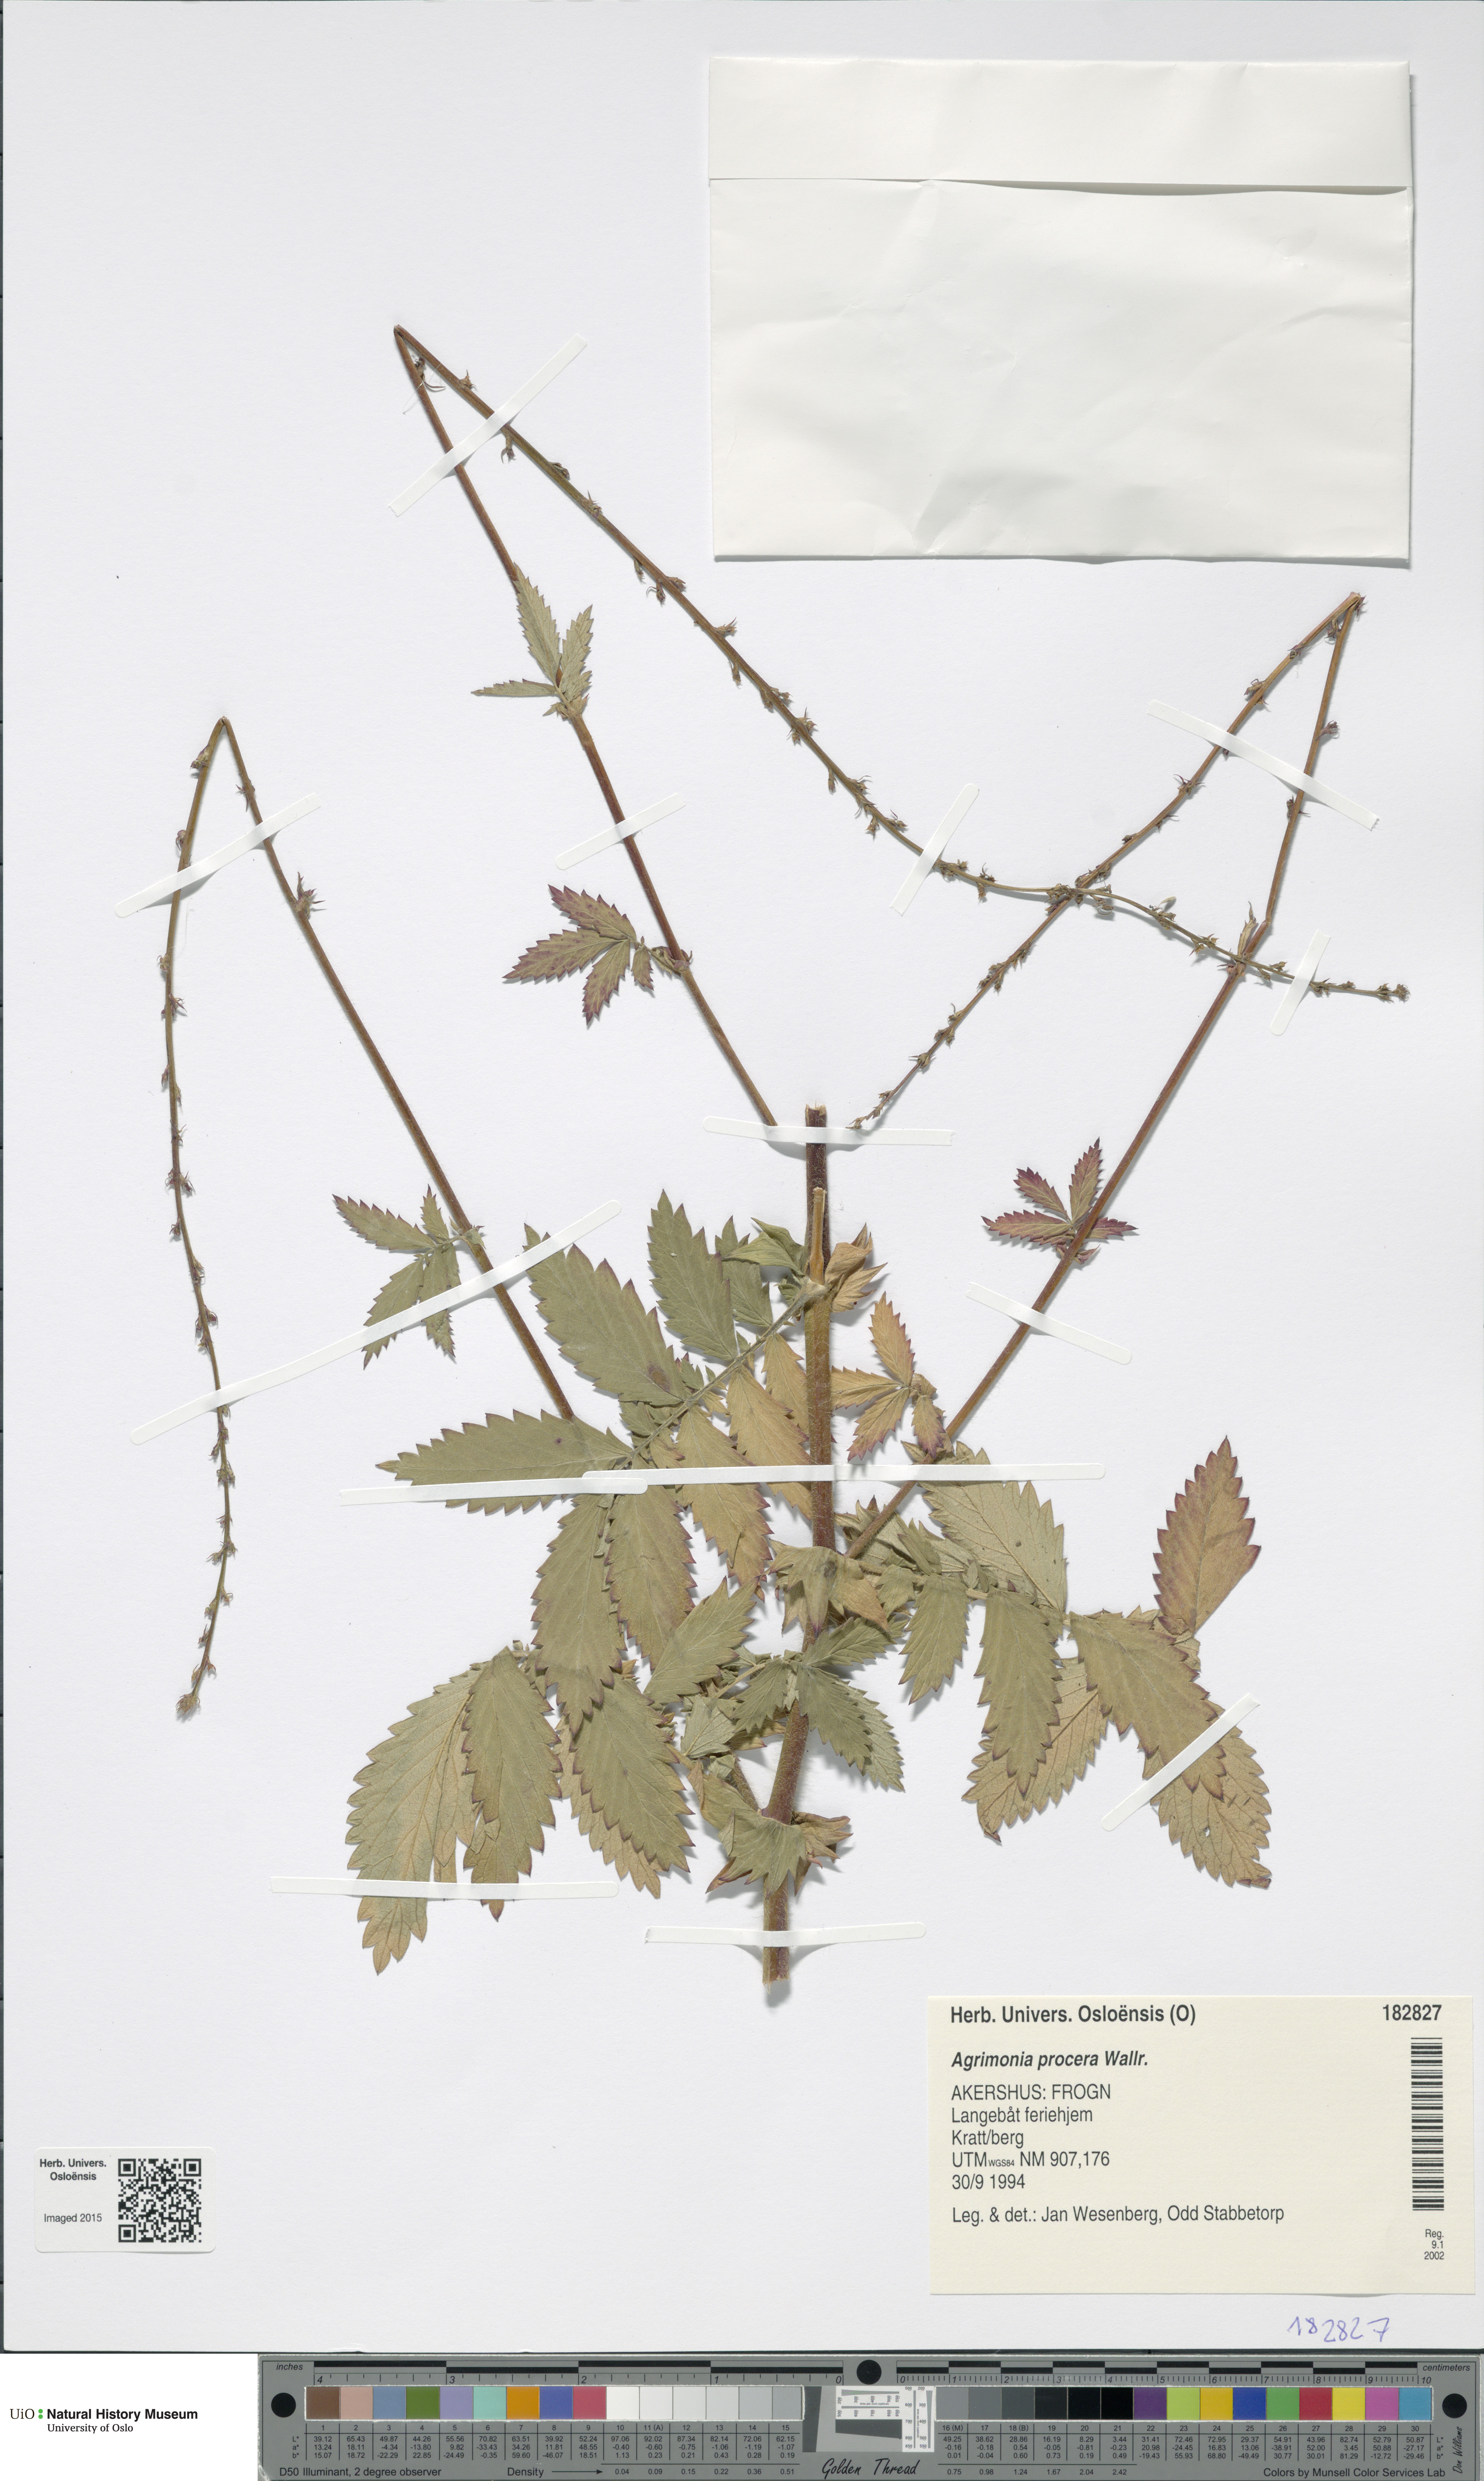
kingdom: Plantae
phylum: Tracheophyta
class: Magnoliopsida
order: Rosales
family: Rosaceae
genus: Agrimonia
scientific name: Agrimonia procera
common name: Fragrant agrimony
